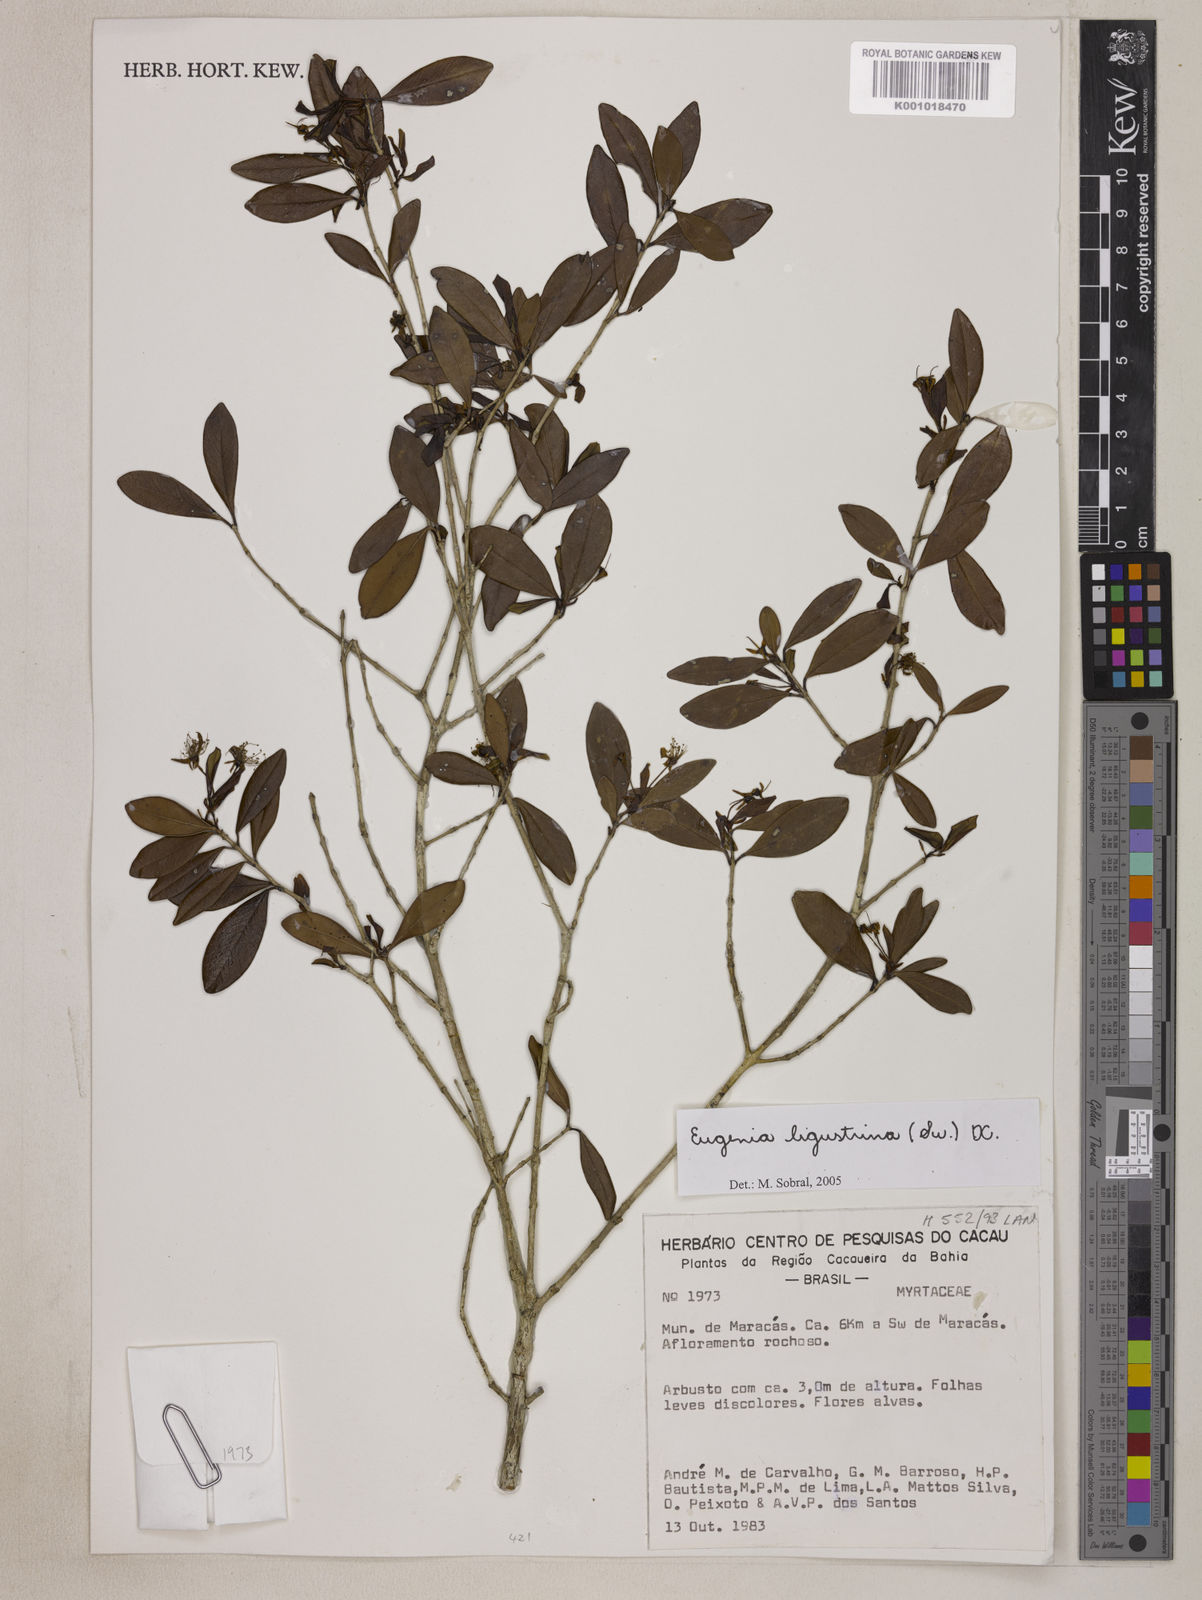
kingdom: Plantae
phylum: Tracheophyta
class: Magnoliopsida
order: Myrtales
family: Myrtaceae
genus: Eugenia
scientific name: Eugenia ligustrina
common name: Privet stopper
